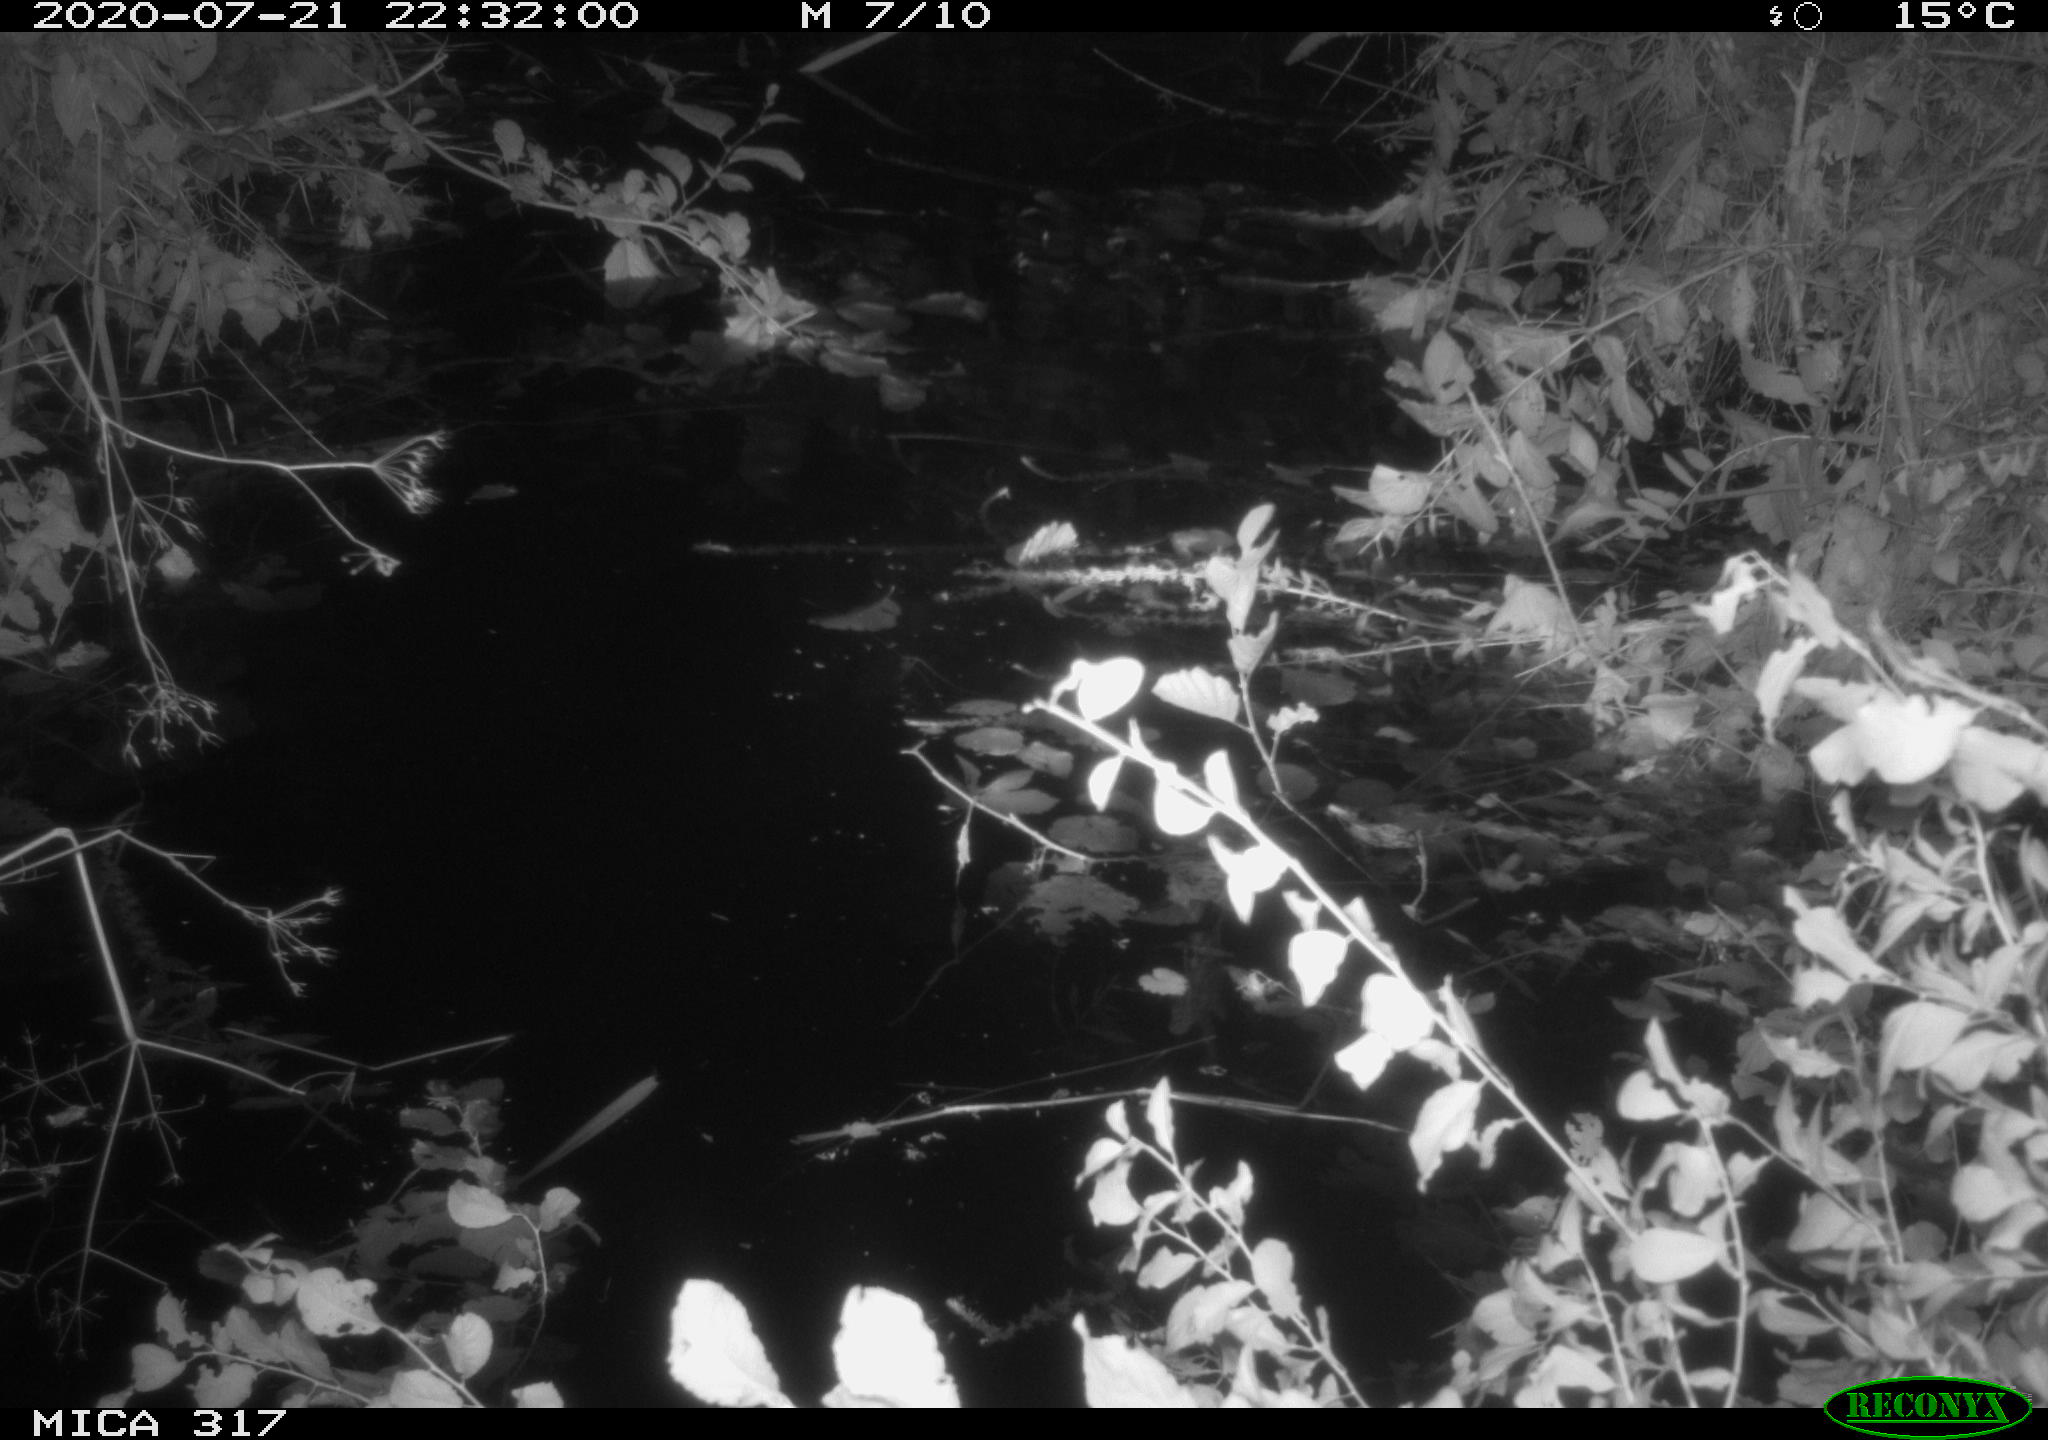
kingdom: Animalia
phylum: Chordata
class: Aves
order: Anseriformes
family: Anatidae
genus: Anas
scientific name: Anas platyrhynchos
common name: Mallard
